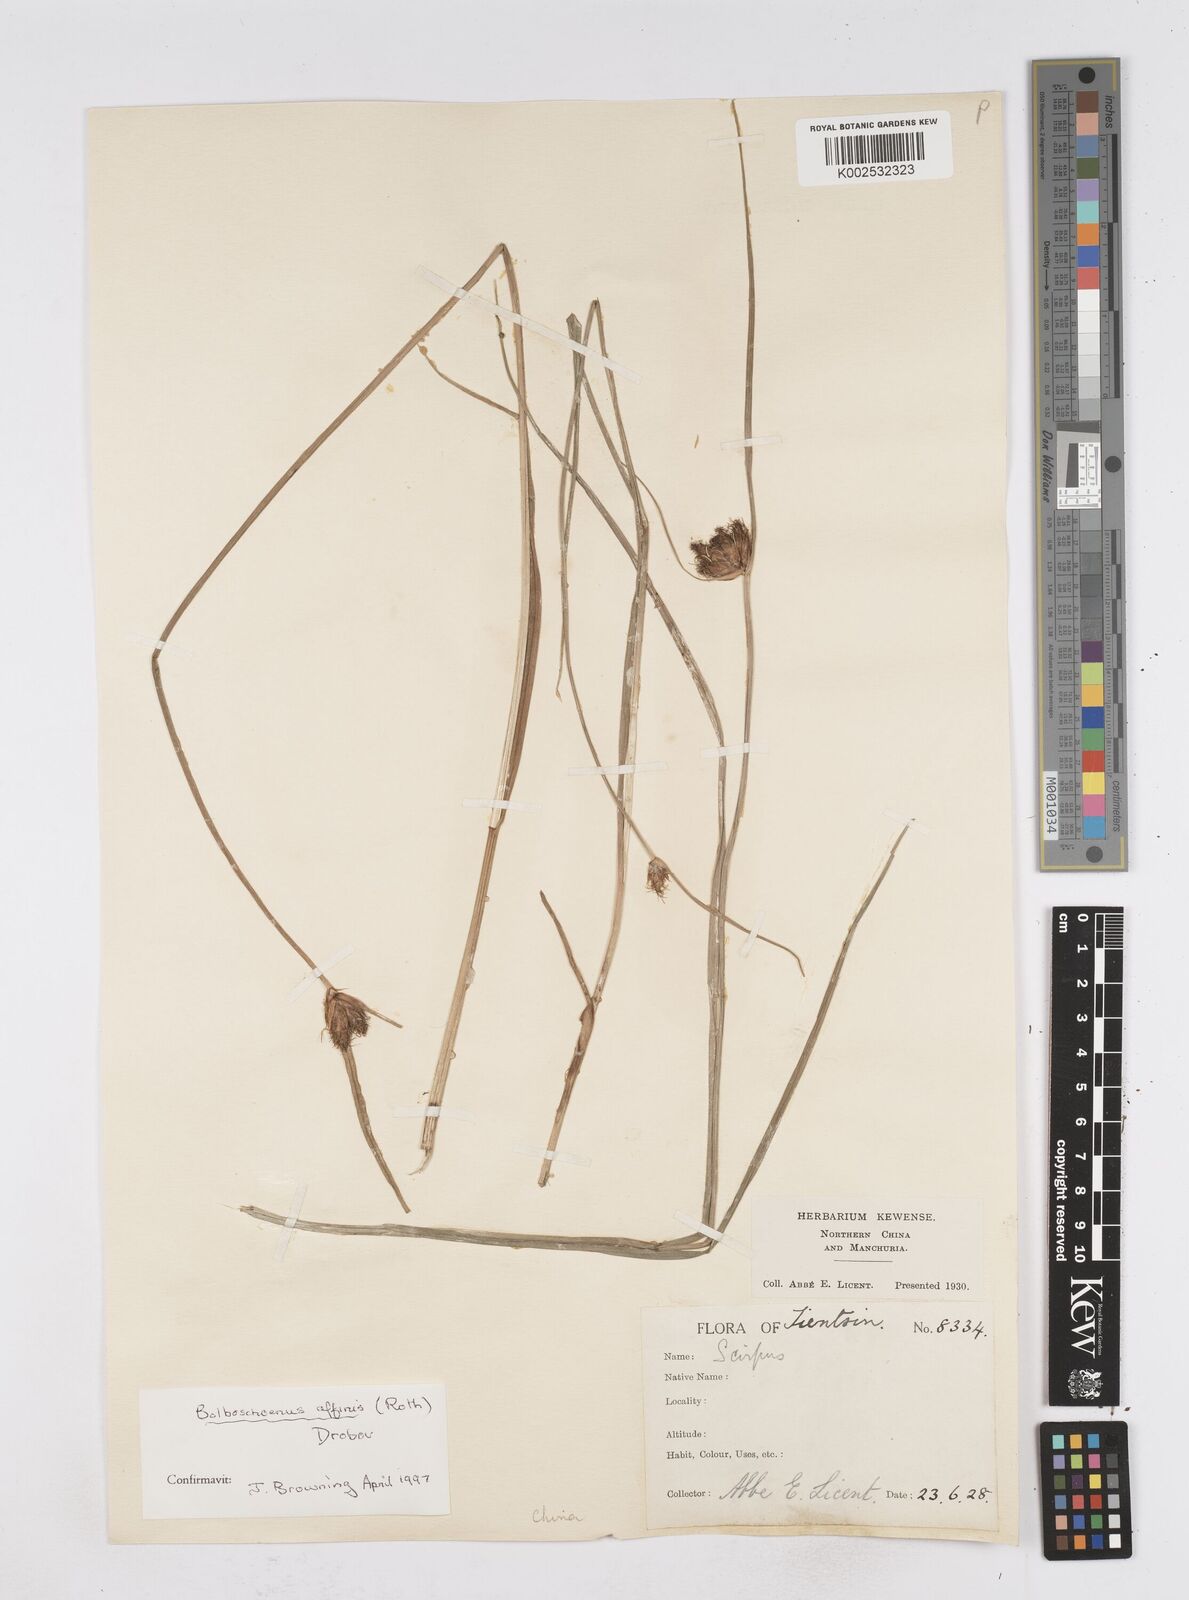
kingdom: Plantae
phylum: Tracheophyta
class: Liliopsida
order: Poales
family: Cyperaceae
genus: Bolboschoenus
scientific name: Bolboschoenus maritimus
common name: Sea club-rush
